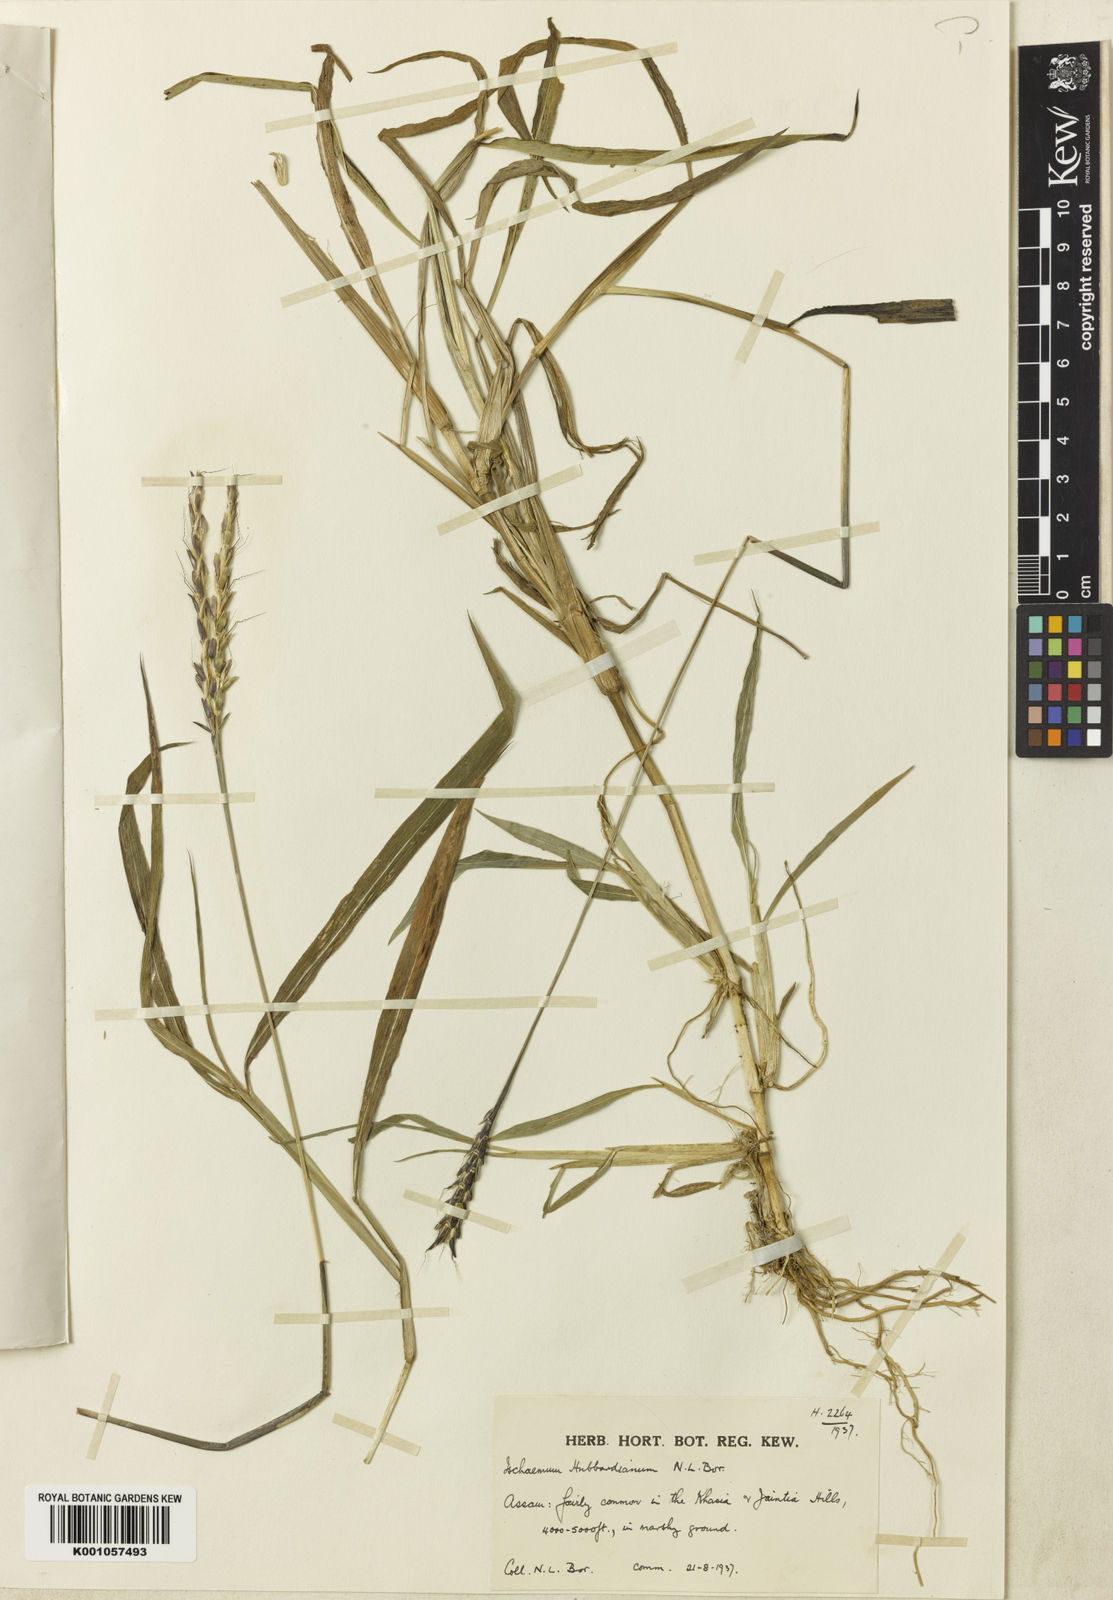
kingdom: Plantae
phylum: Tracheophyta
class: Liliopsida
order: Poales
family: Poaceae
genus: Ischaemum
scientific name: Ischaemum hubbardii
